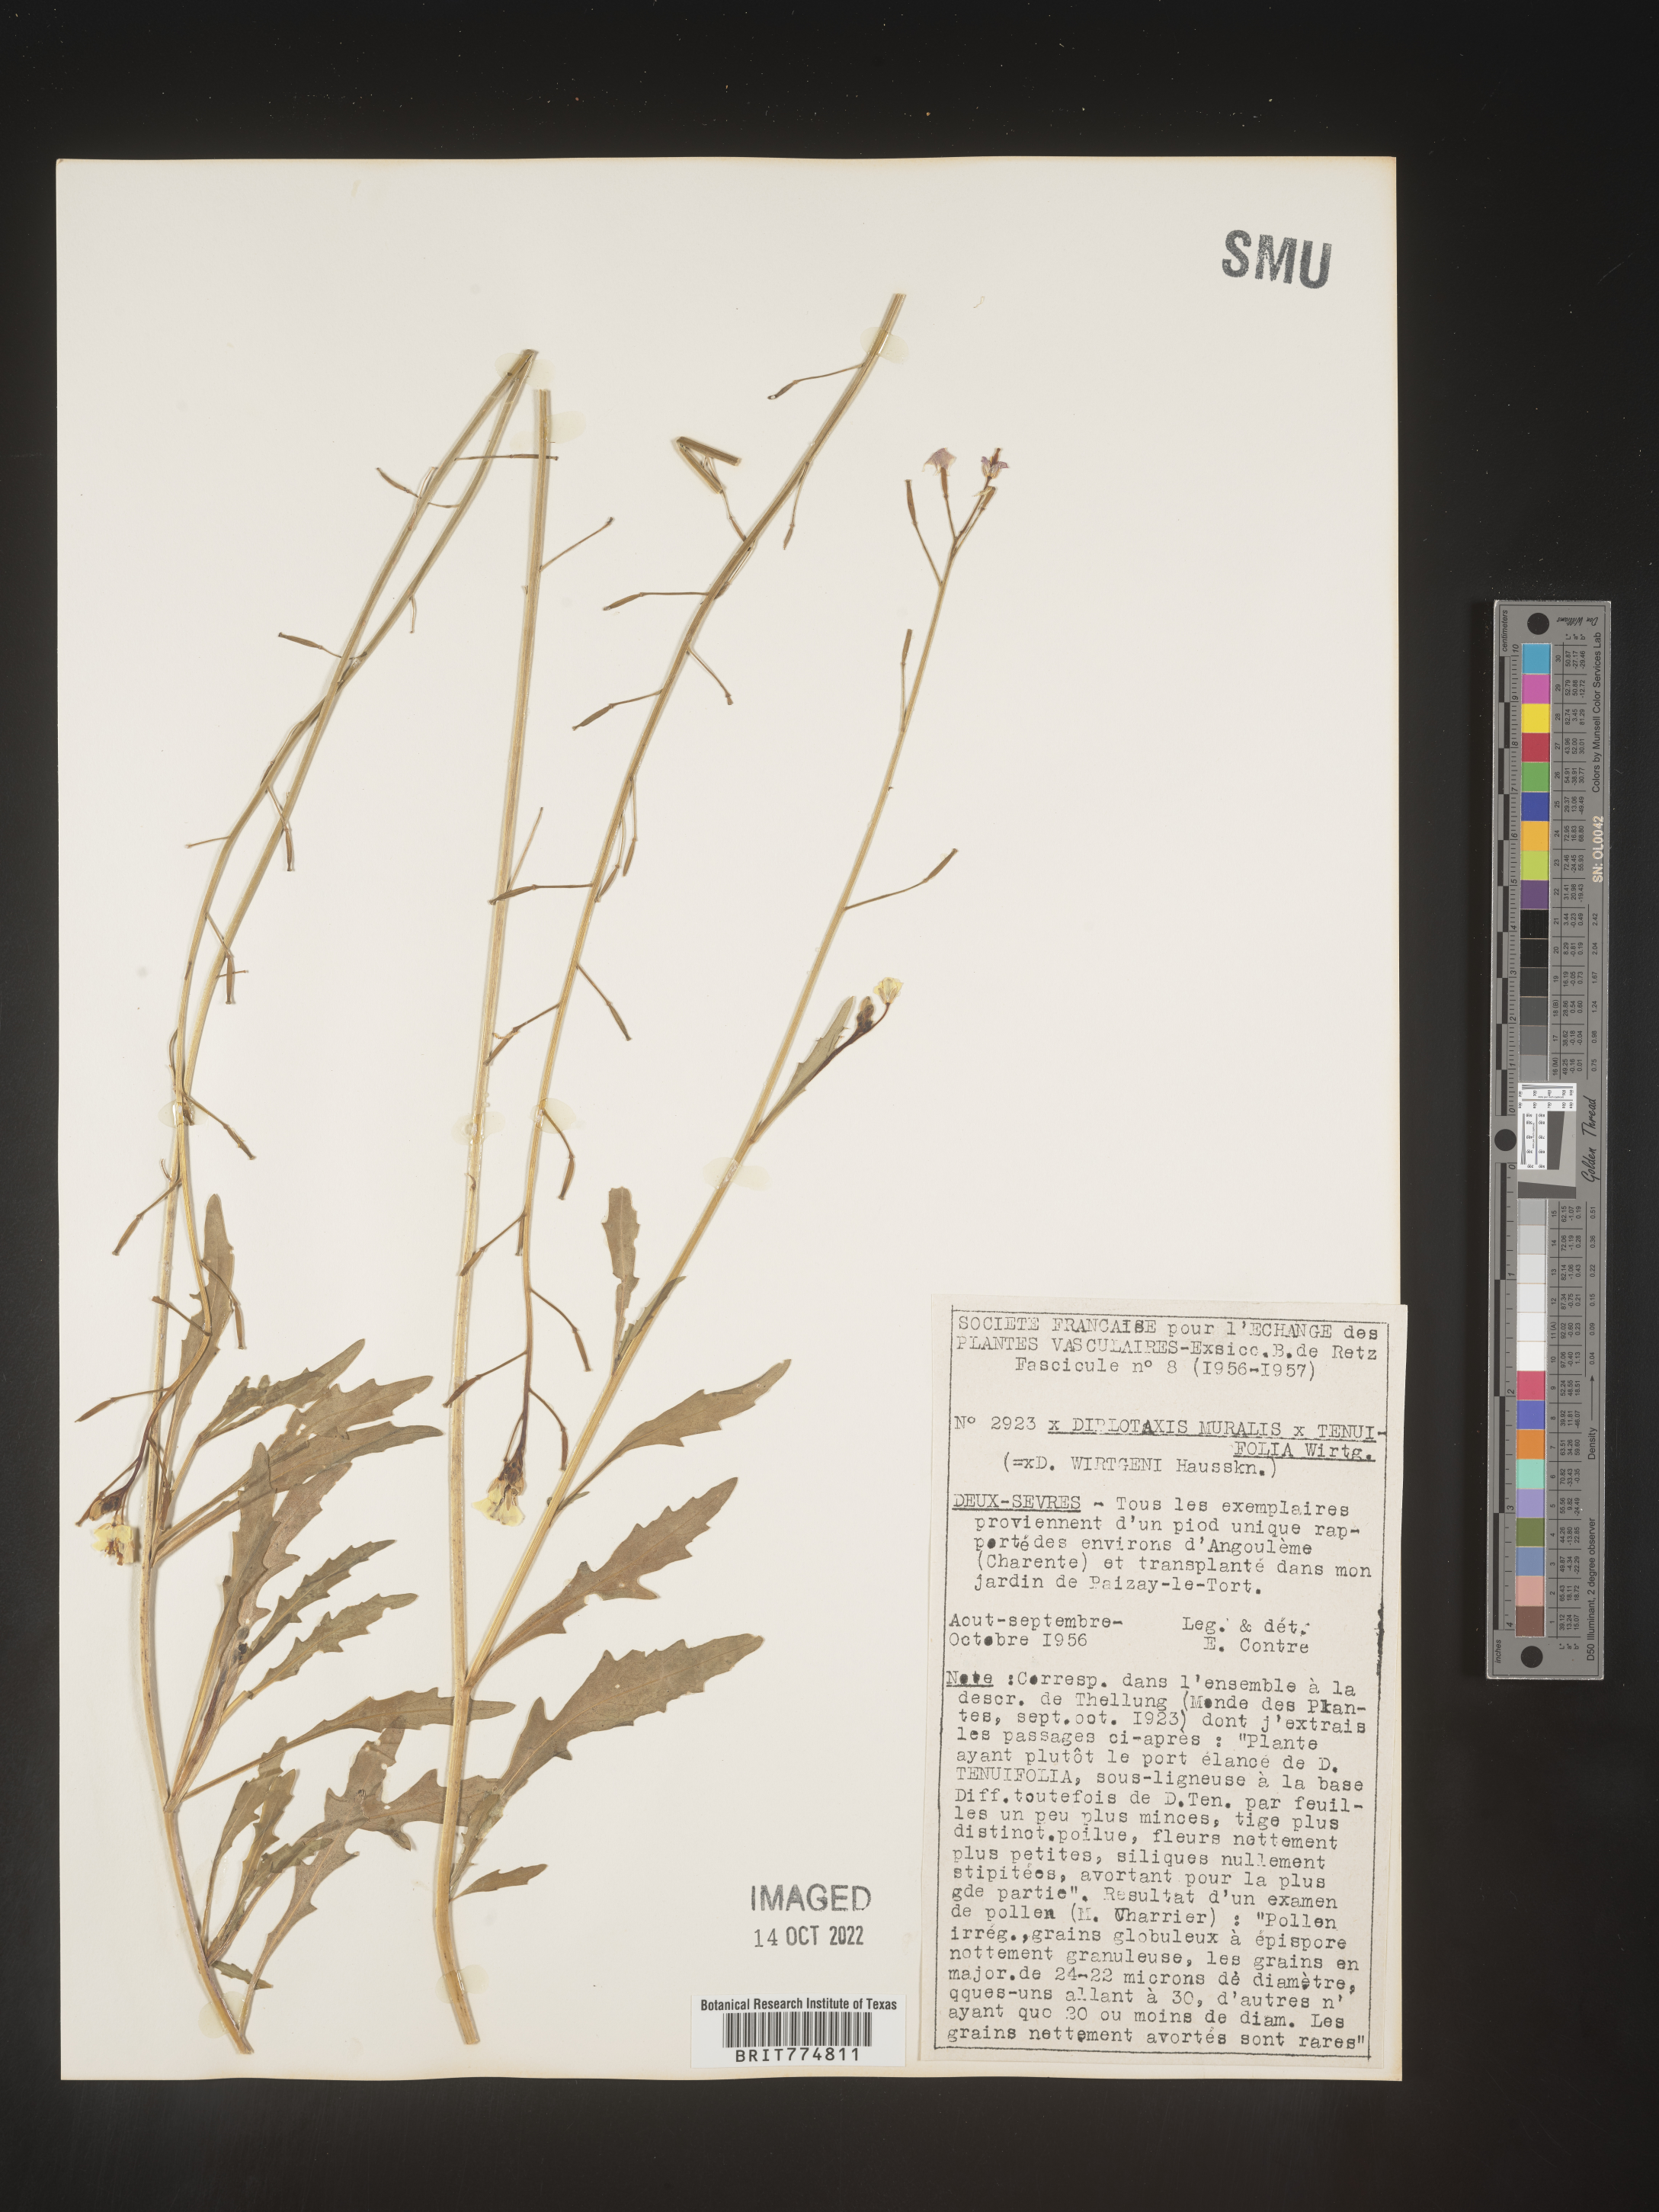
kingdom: Plantae
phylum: Tracheophyta
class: Magnoliopsida
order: Brassicales
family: Brassicaceae
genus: Diplotaxis
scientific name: Diplotaxis
